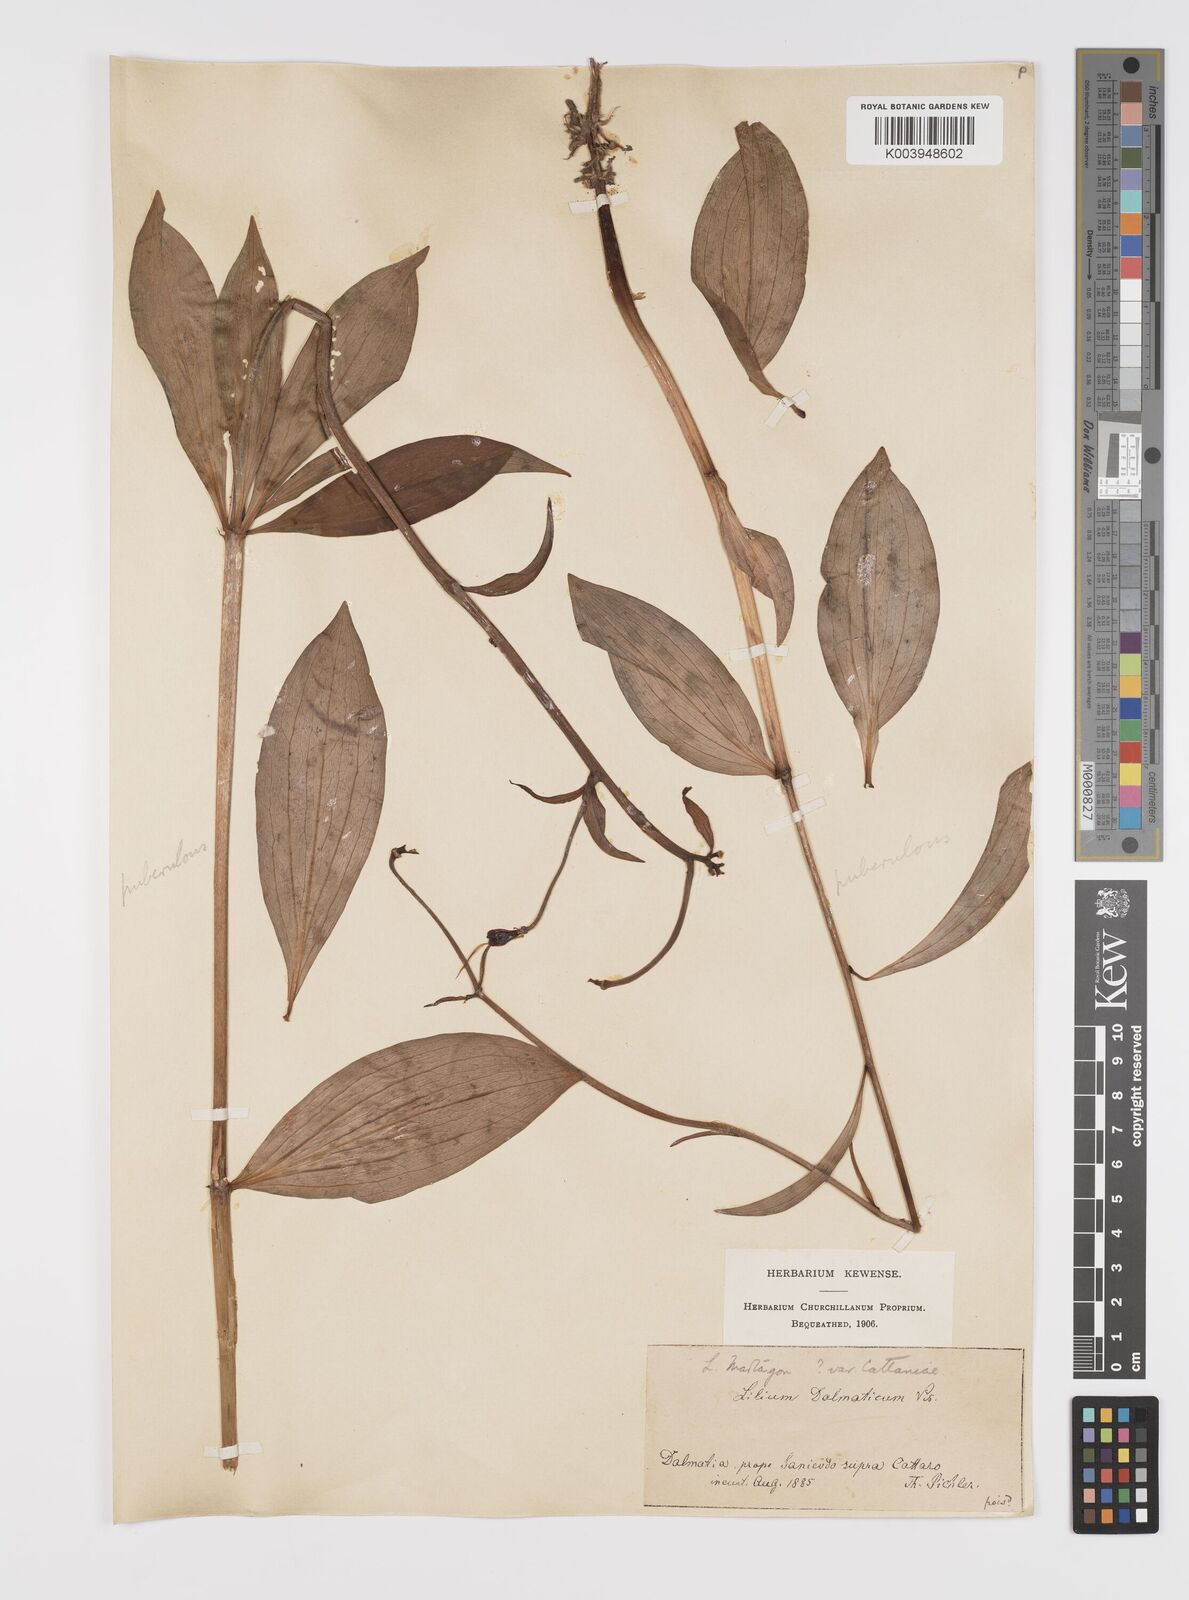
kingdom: Plantae
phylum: Tracheophyta
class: Liliopsida
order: Liliales
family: Liliaceae
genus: Lilium
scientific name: Lilium martagon
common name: Martagon lily
